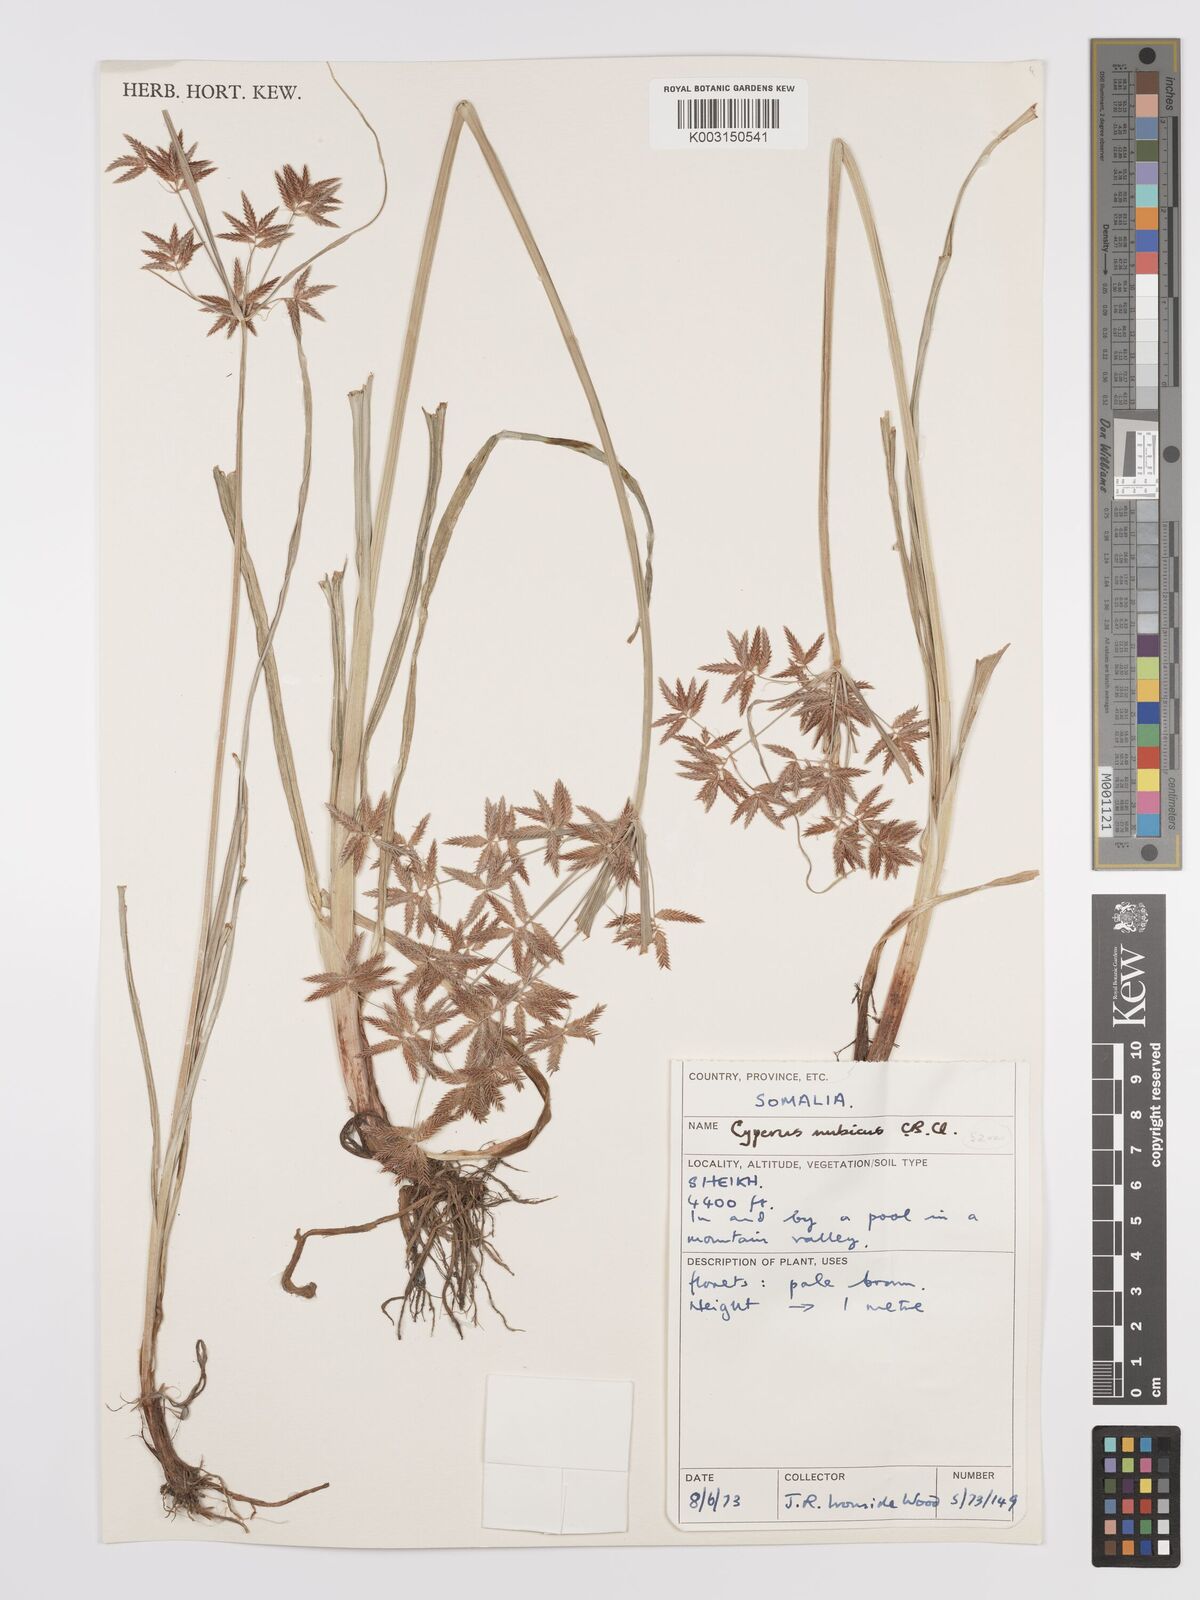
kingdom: Plantae
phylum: Tracheophyta
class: Liliopsida
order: Poales
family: Cyperaceae
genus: Cyperus
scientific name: Cyperus bifax
